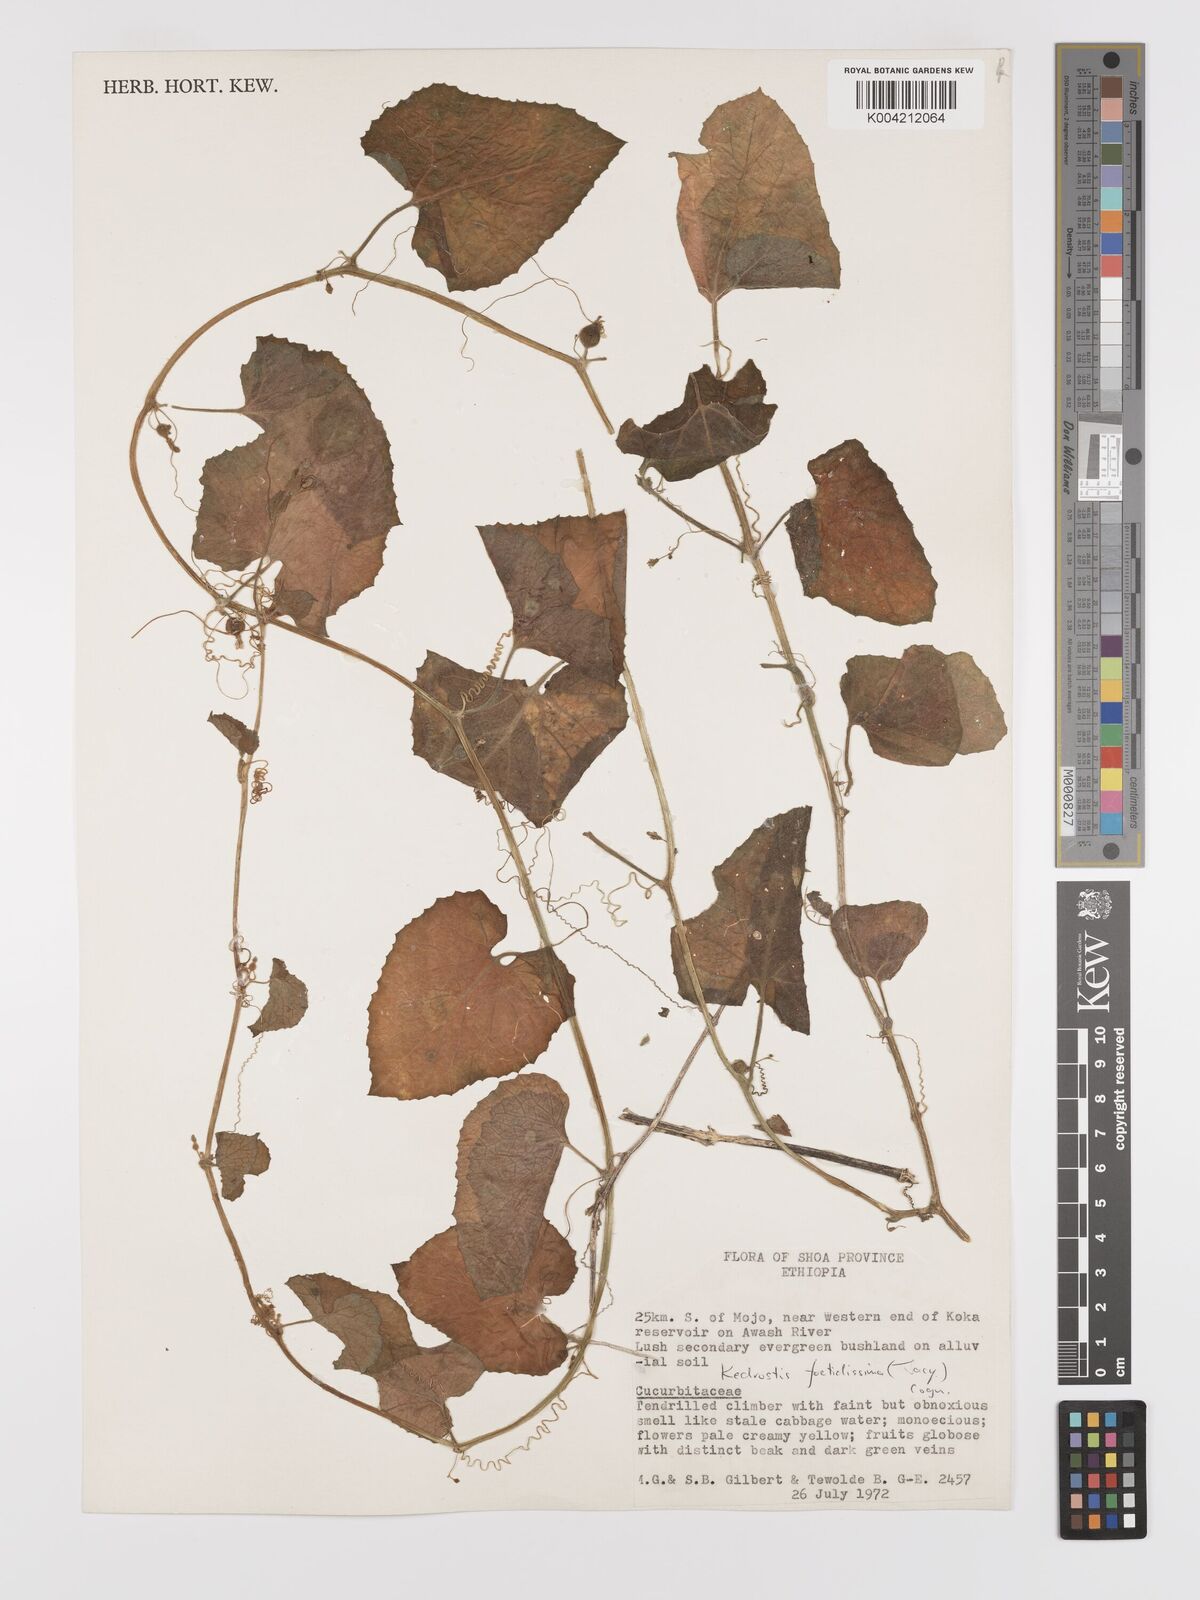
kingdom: Plantae
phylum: Tracheophyta
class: Magnoliopsida
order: Cucurbitales
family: Cucurbitaceae
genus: Kedrostis
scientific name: Kedrostis foetidissima
